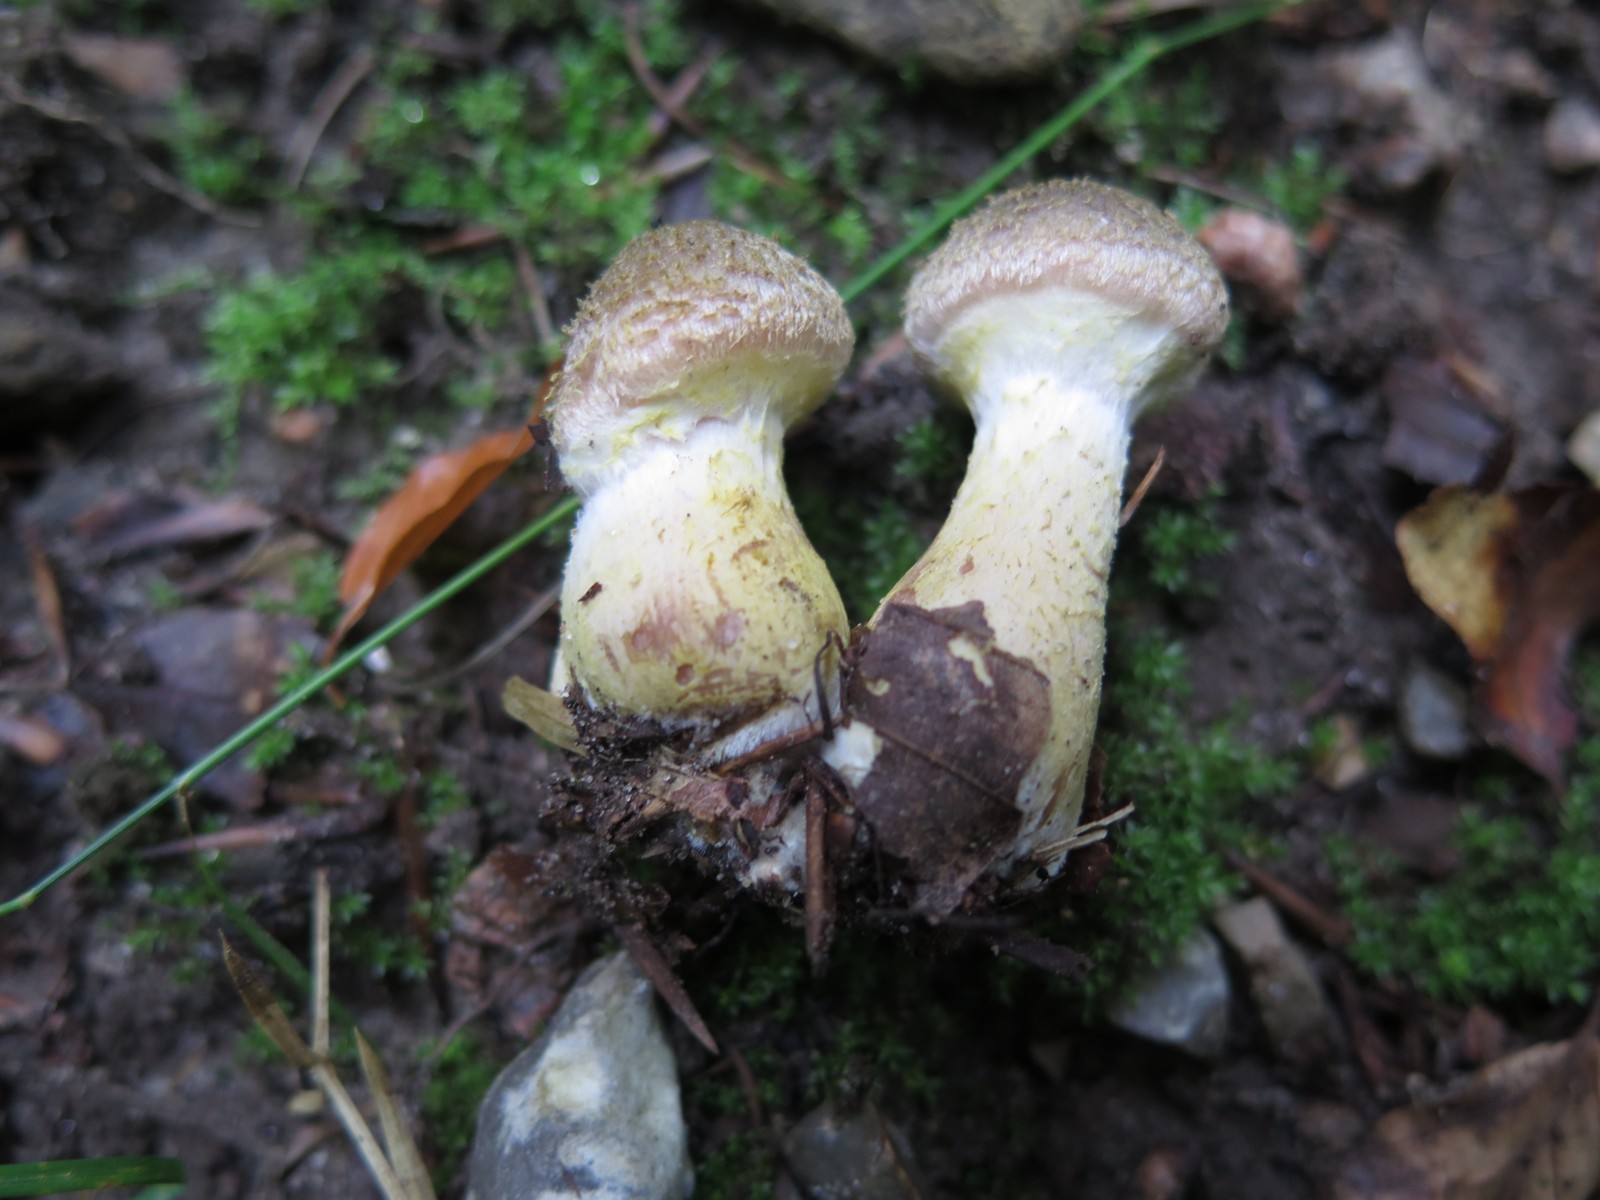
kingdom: Fungi
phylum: Basidiomycota
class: Agaricomycetes
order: Agaricales
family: Physalacriaceae
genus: Armillaria
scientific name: Armillaria lutea
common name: køllestokket honningsvamp
